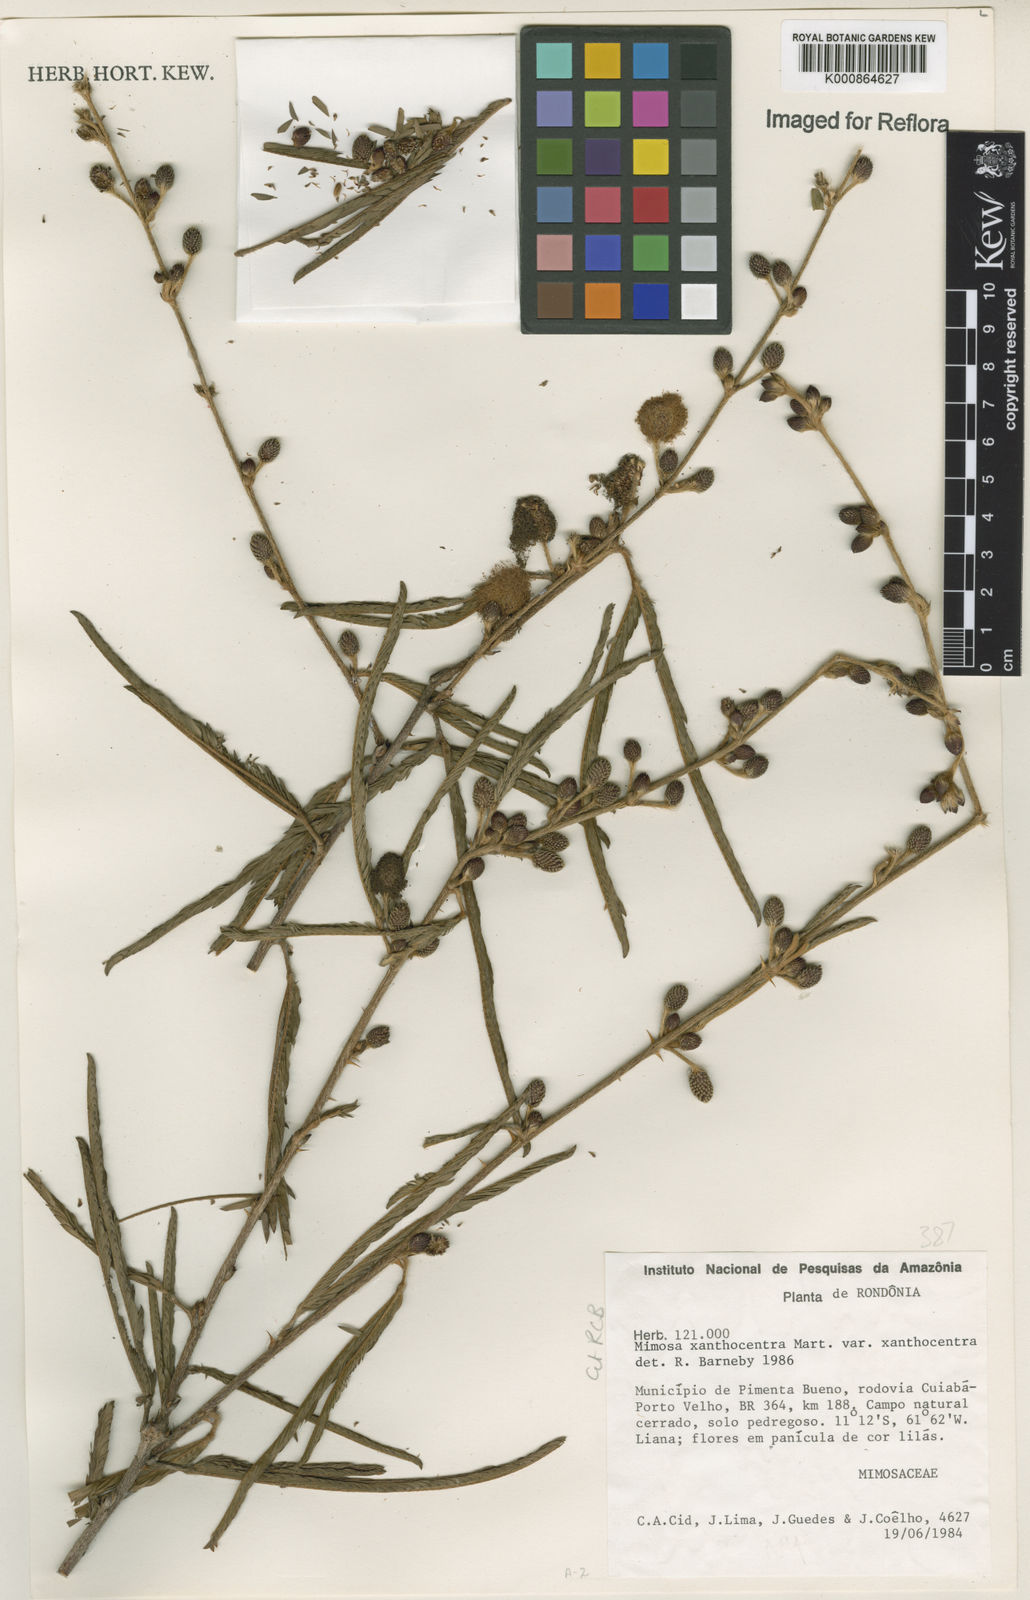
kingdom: Plantae
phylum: Tracheophyta
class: Magnoliopsida
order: Fabales
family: Fabaceae
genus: Mimosa
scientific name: Mimosa xanthocentra
